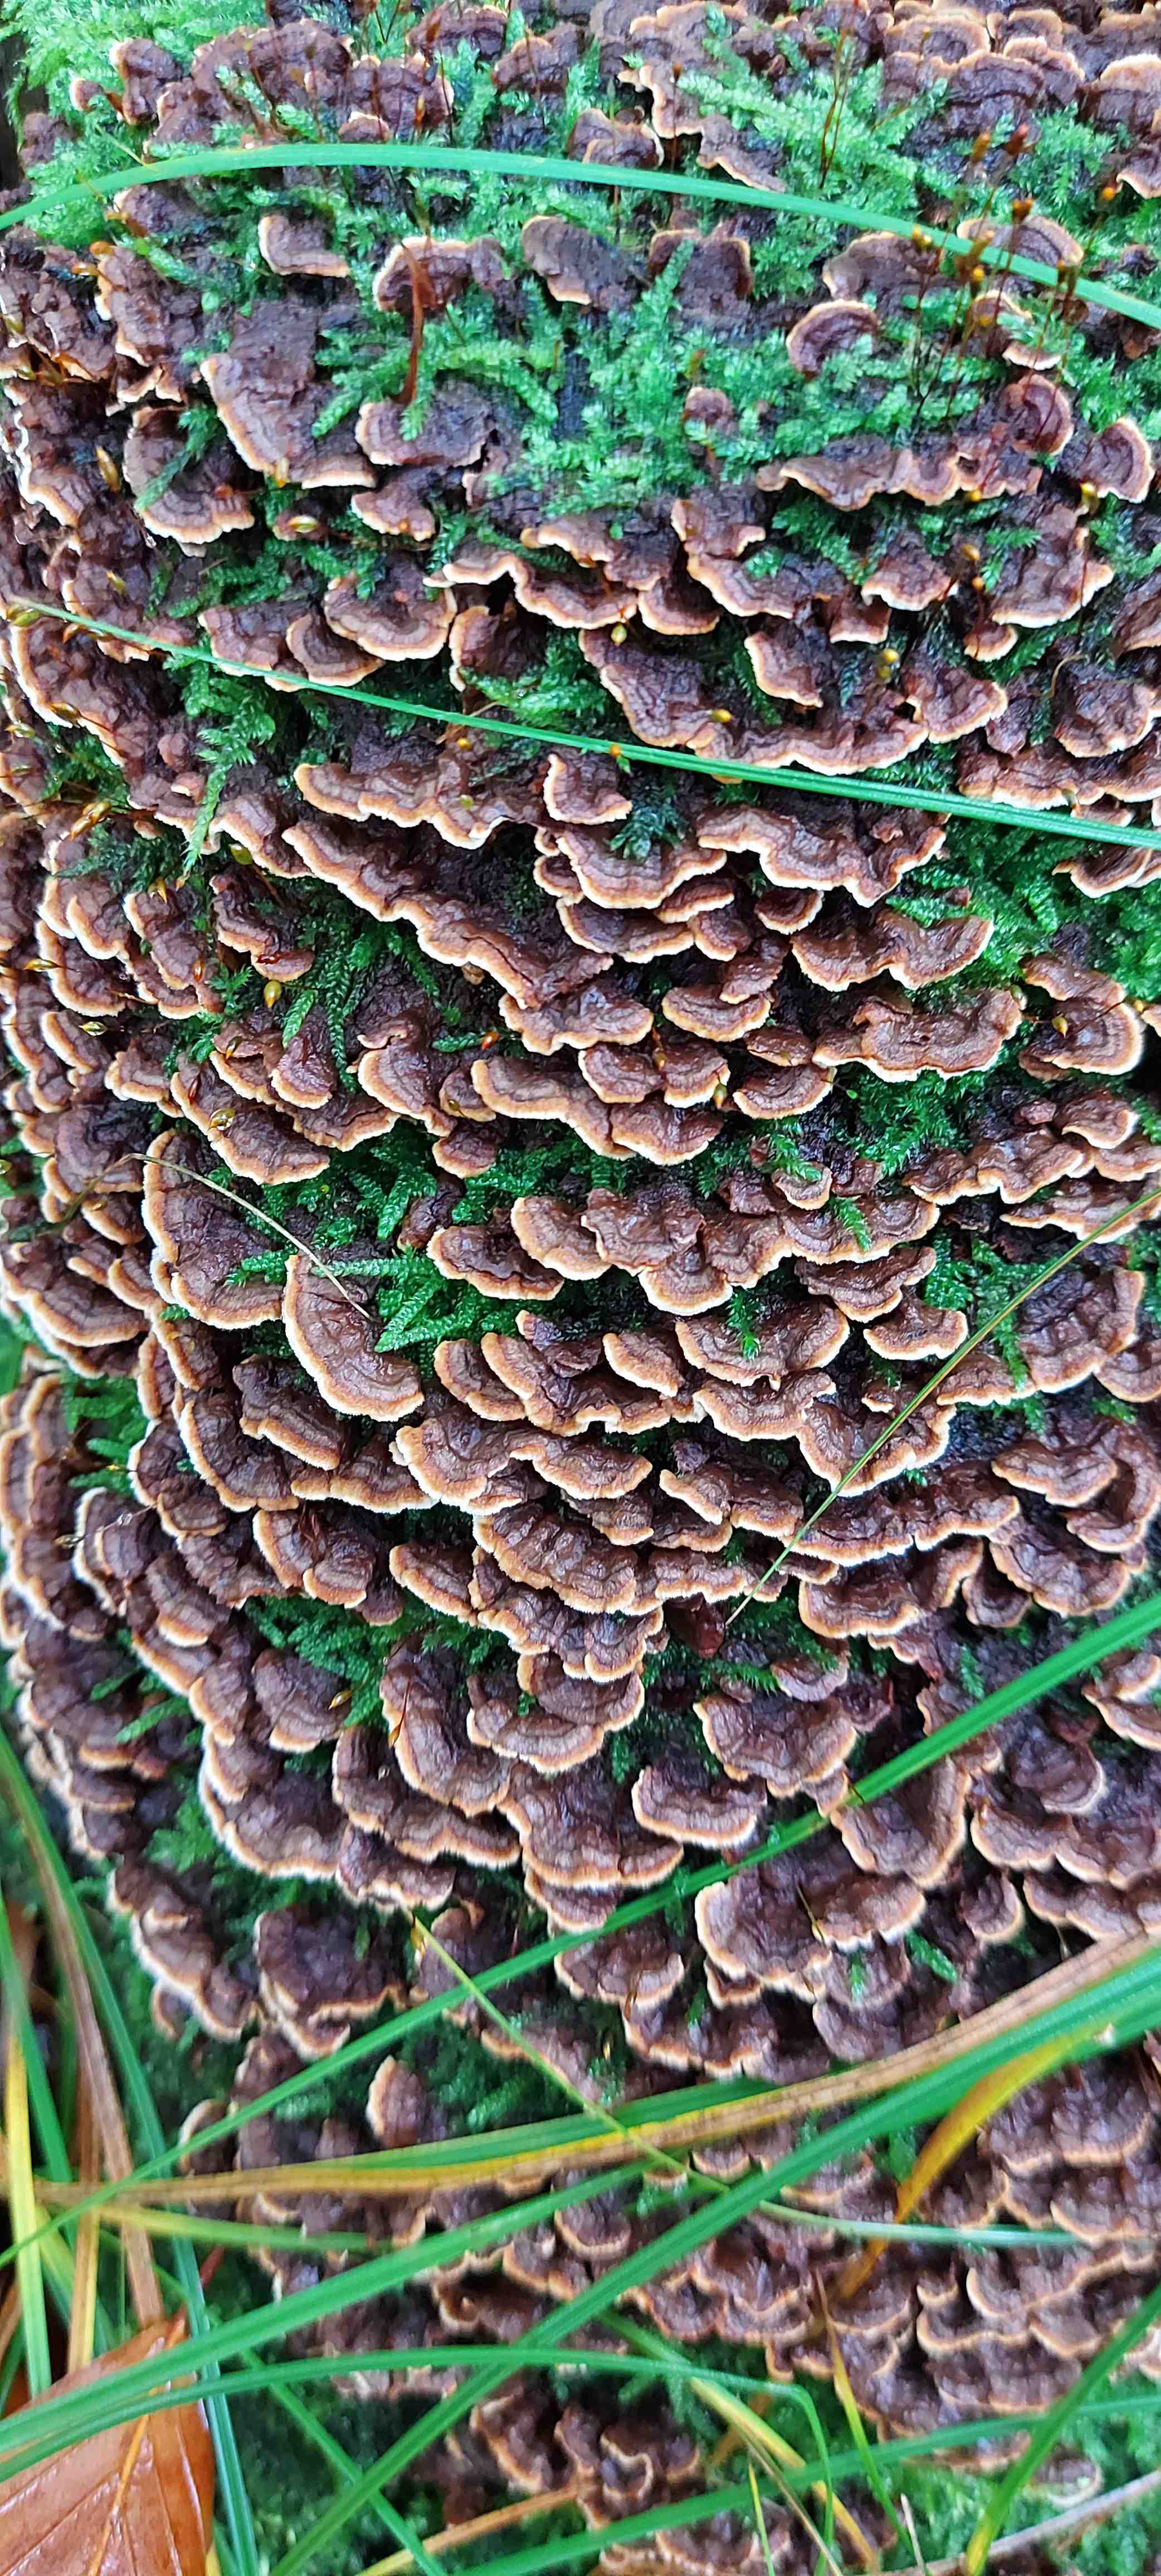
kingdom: Fungi
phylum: Basidiomycota
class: Agaricomycetes
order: Russulales
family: Stereaceae
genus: Stereum
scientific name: Stereum
